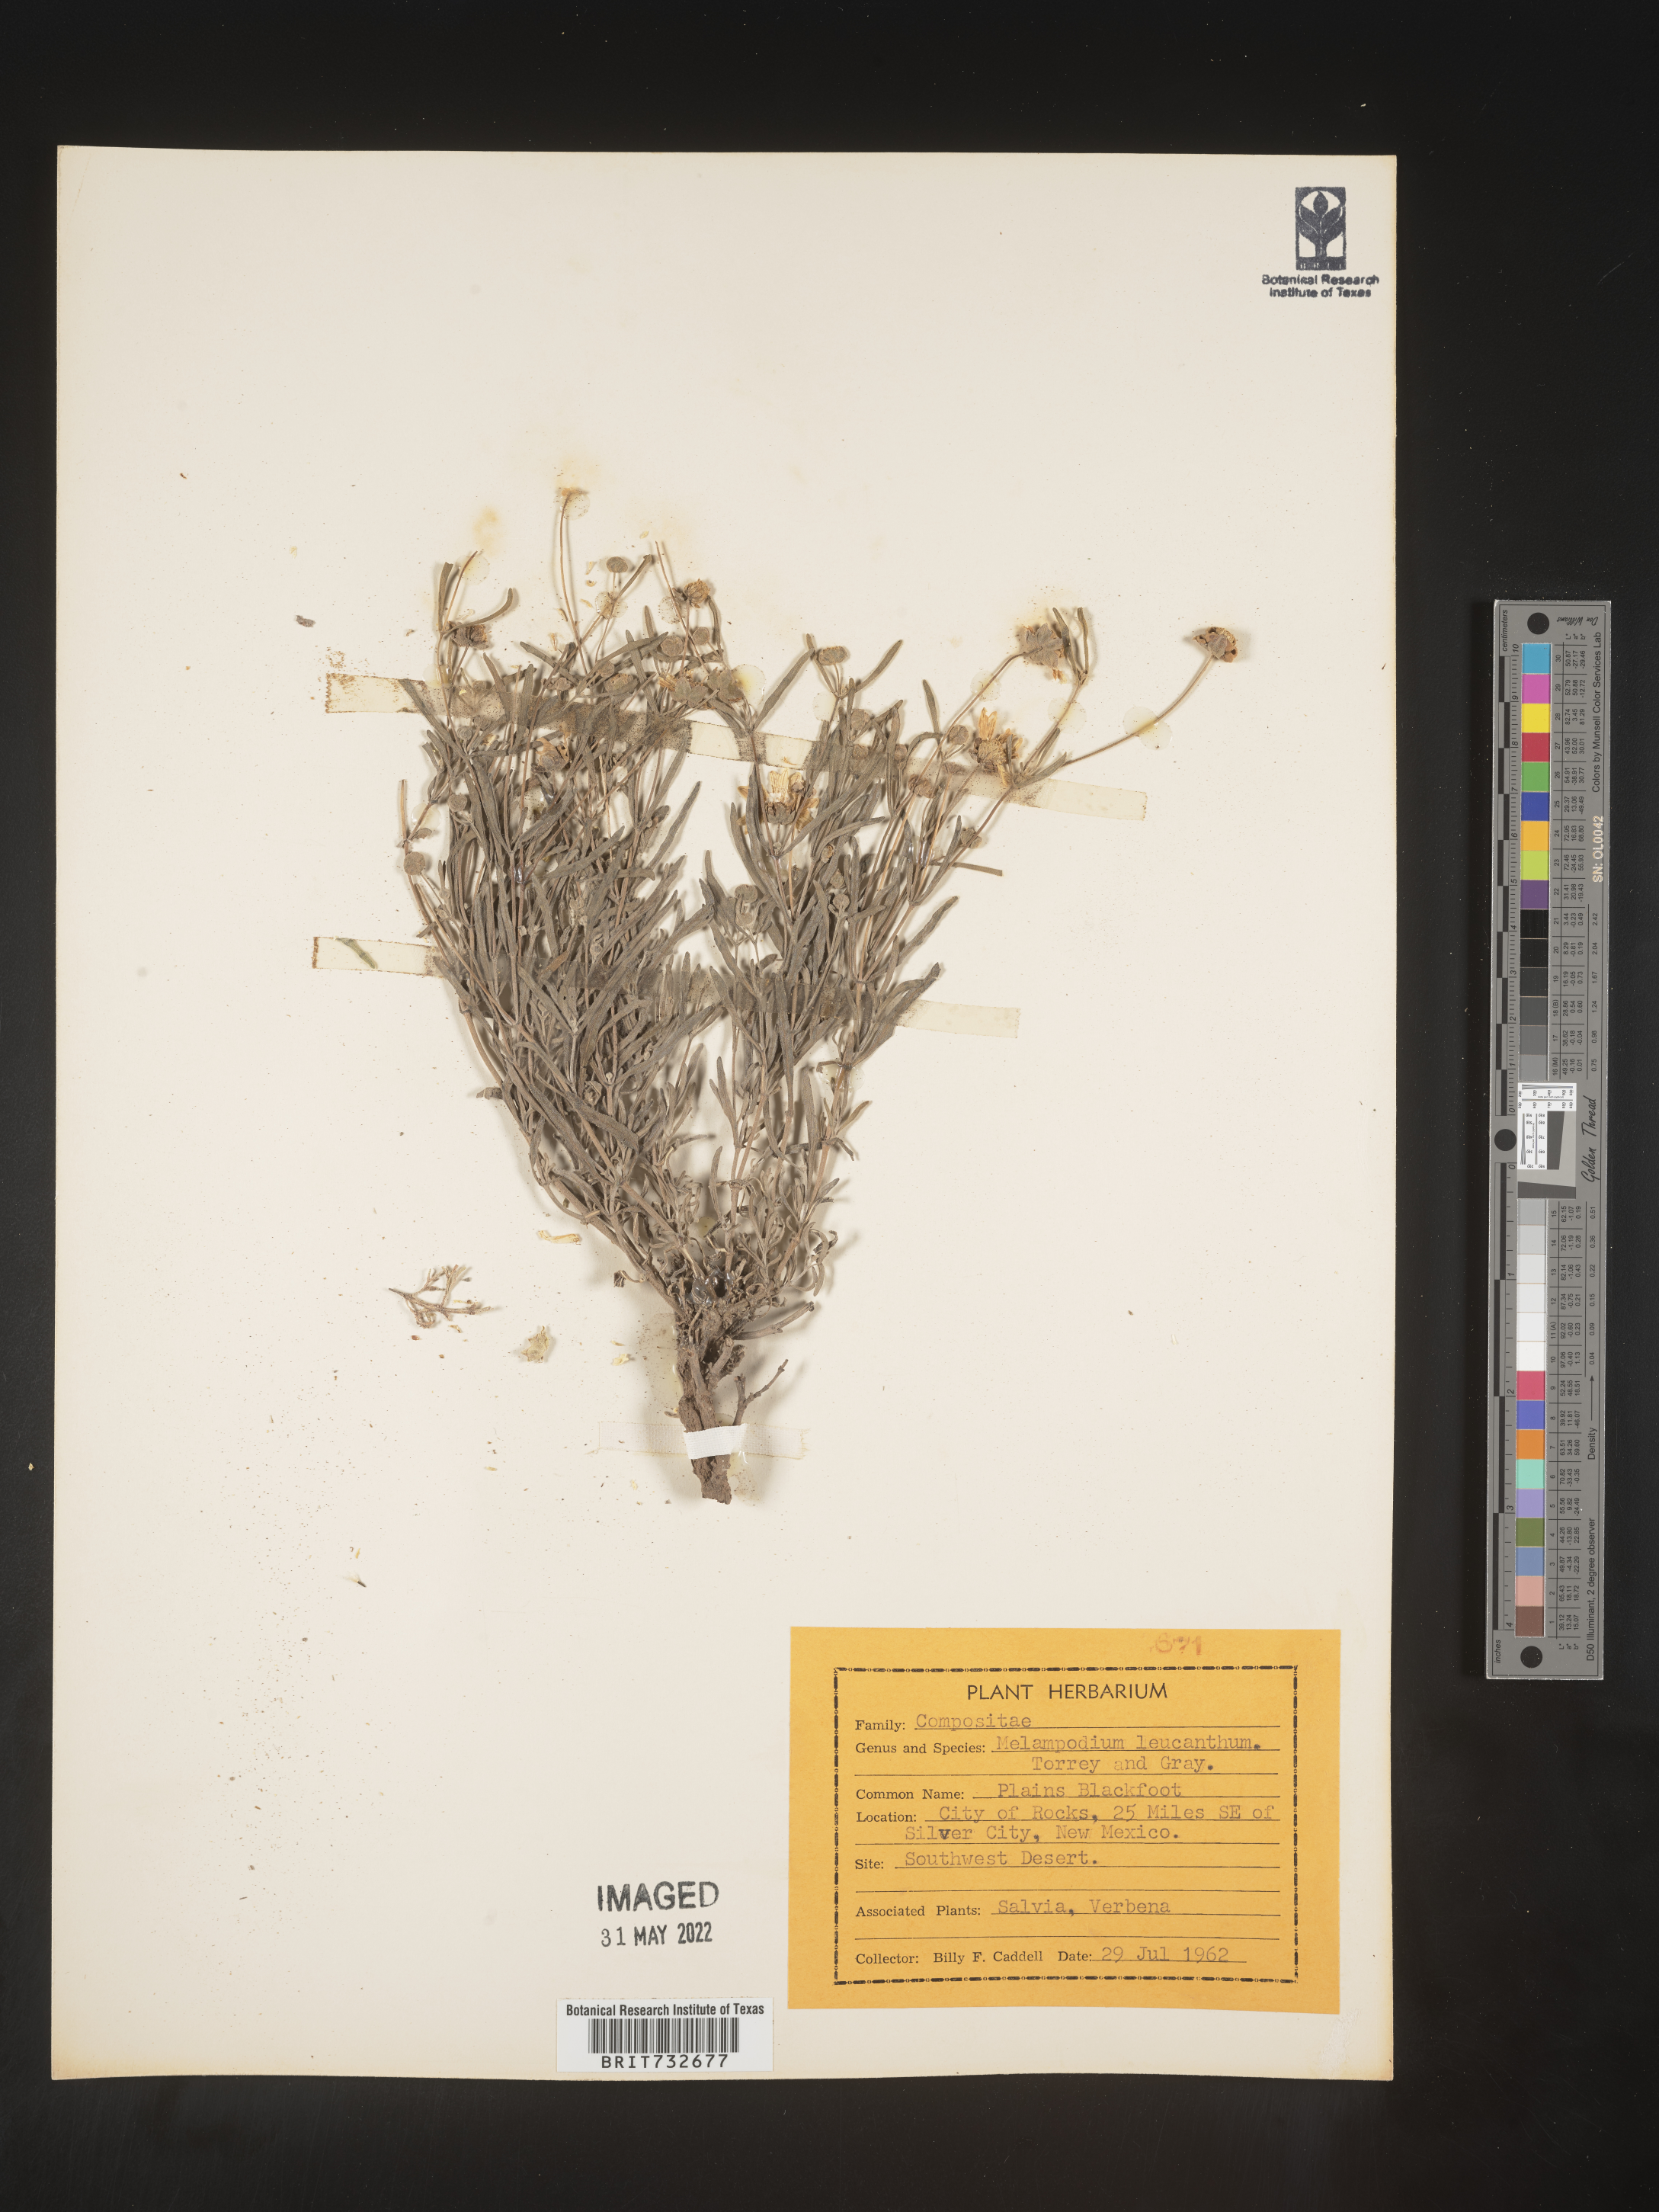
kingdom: Plantae
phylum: Tracheophyta
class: Magnoliopsida
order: Asterales
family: Asteraceae
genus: Melampodium
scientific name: Melampodium leucanthum
